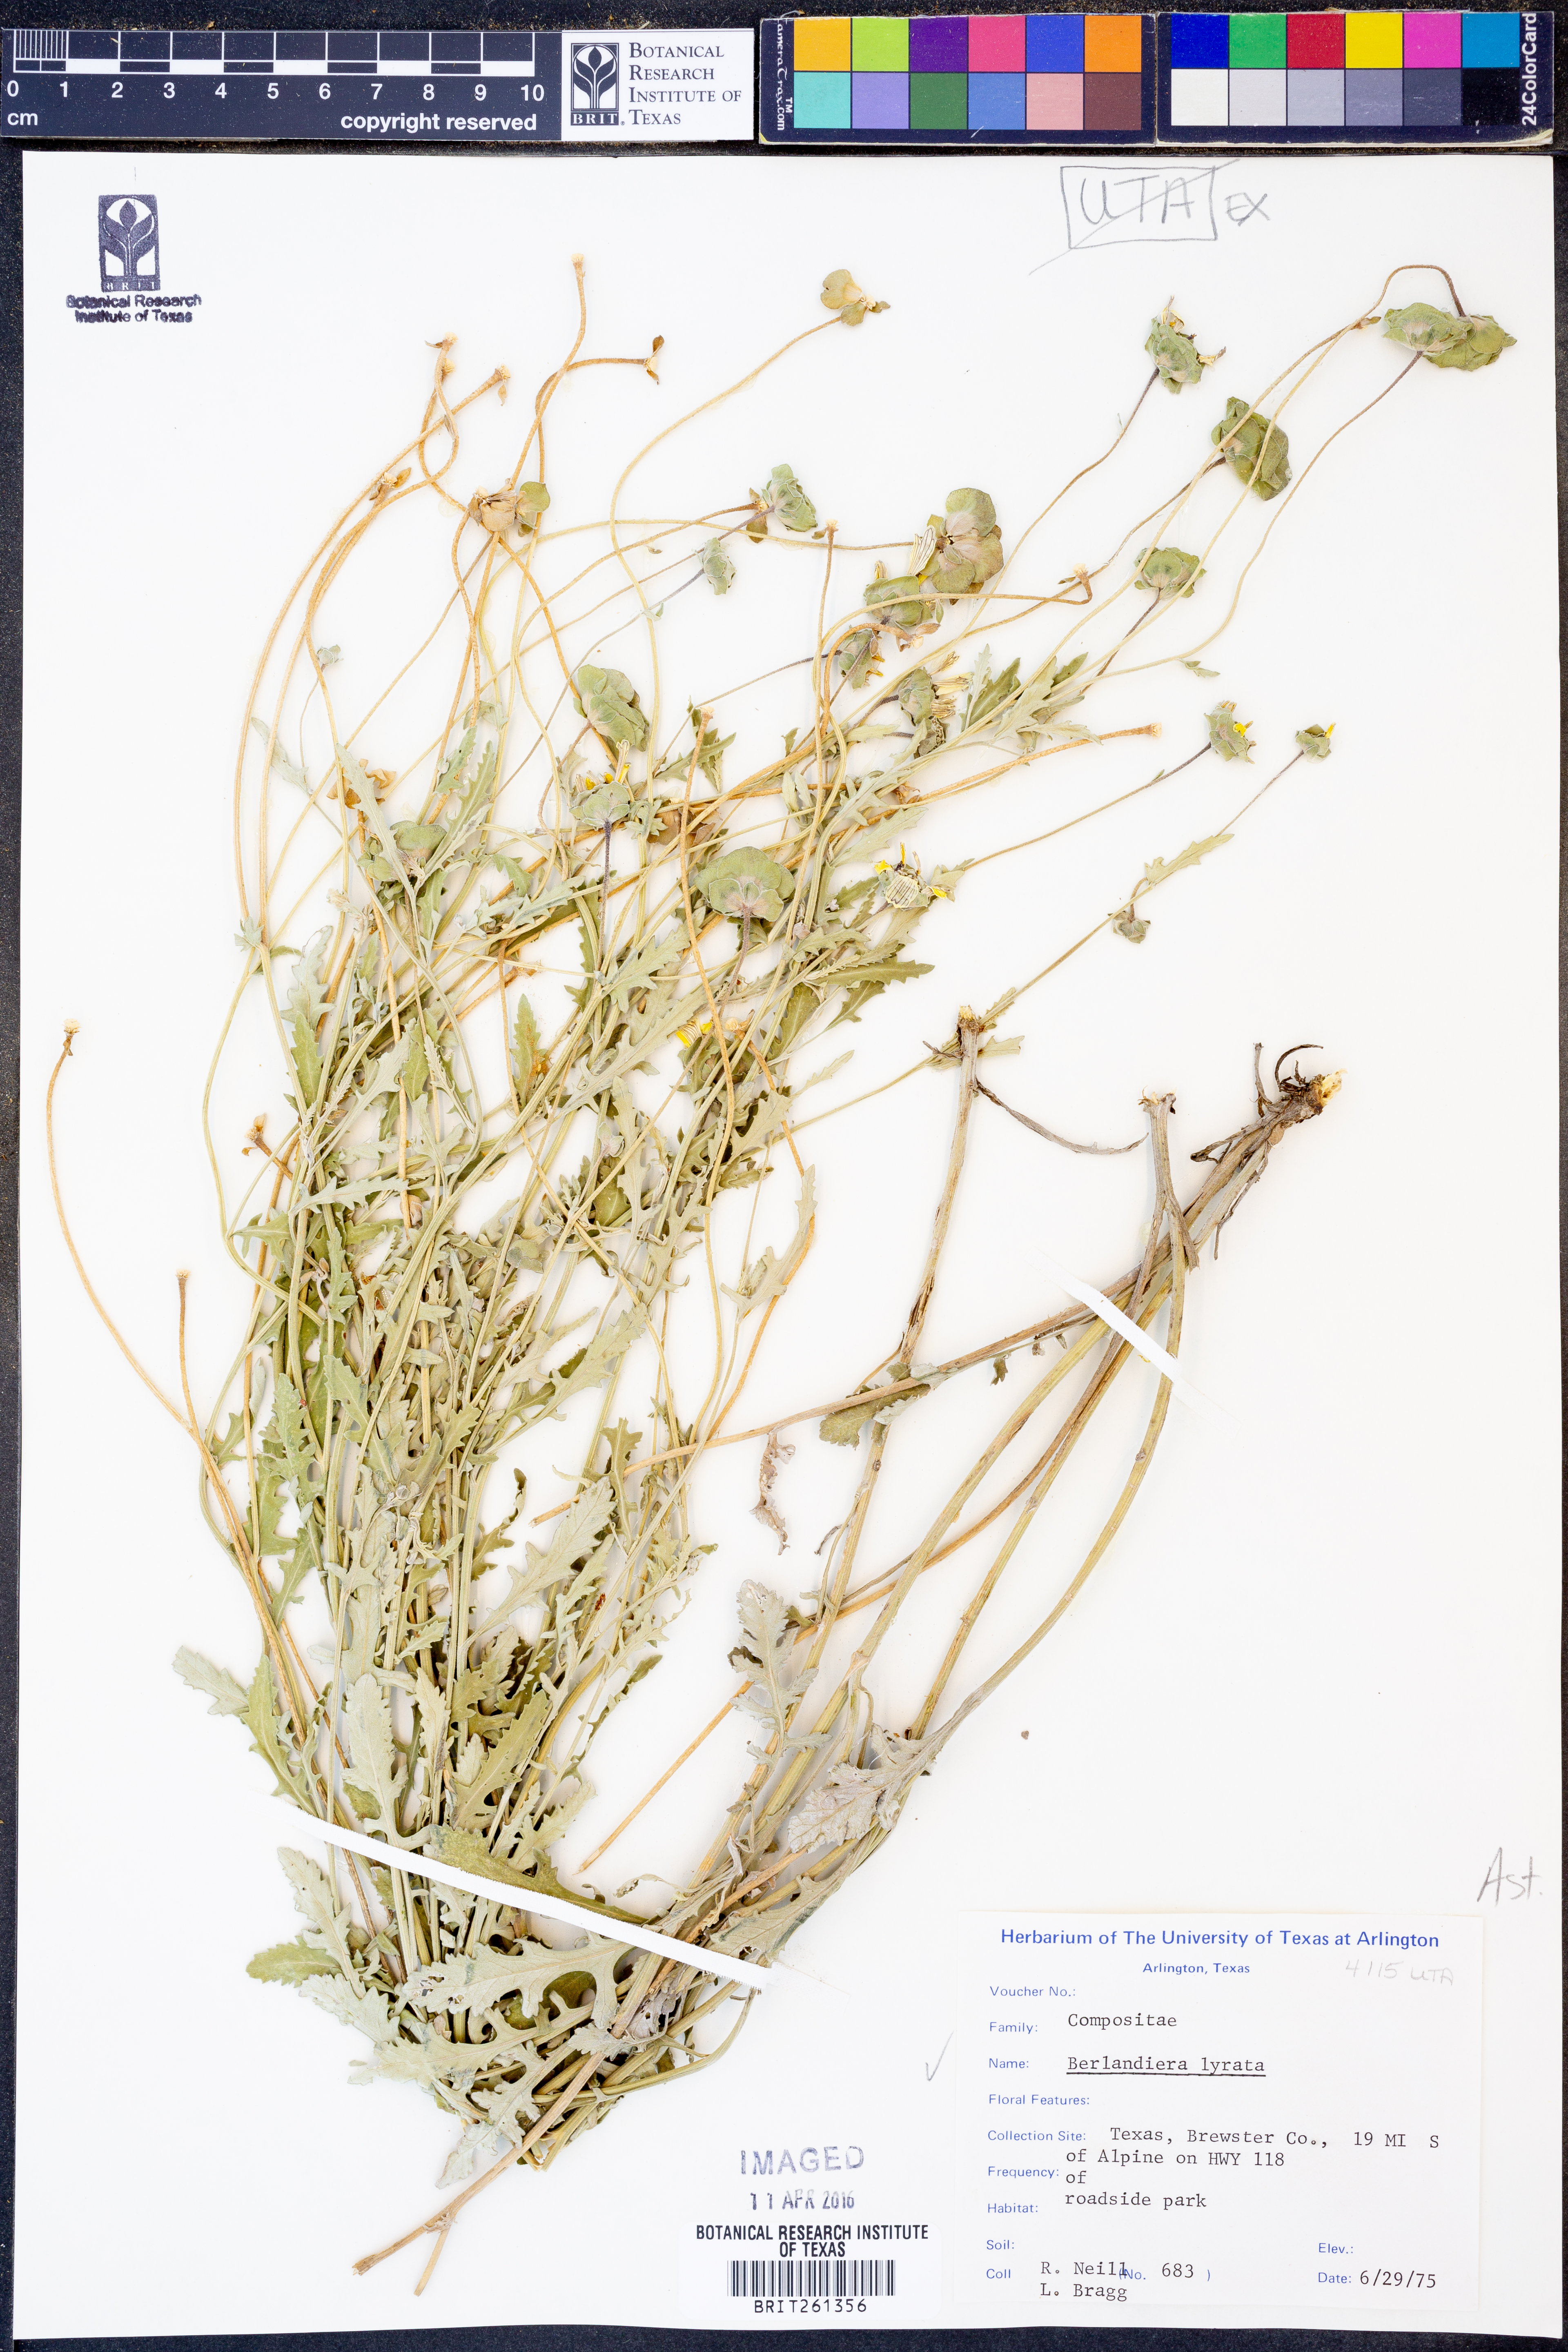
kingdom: Plantae
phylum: Tracheophyta
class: Magnoliopsida
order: Asterales
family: Asteraceae
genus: Berlandiera
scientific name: Berlandiera lyrata
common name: Chocolate-flower
